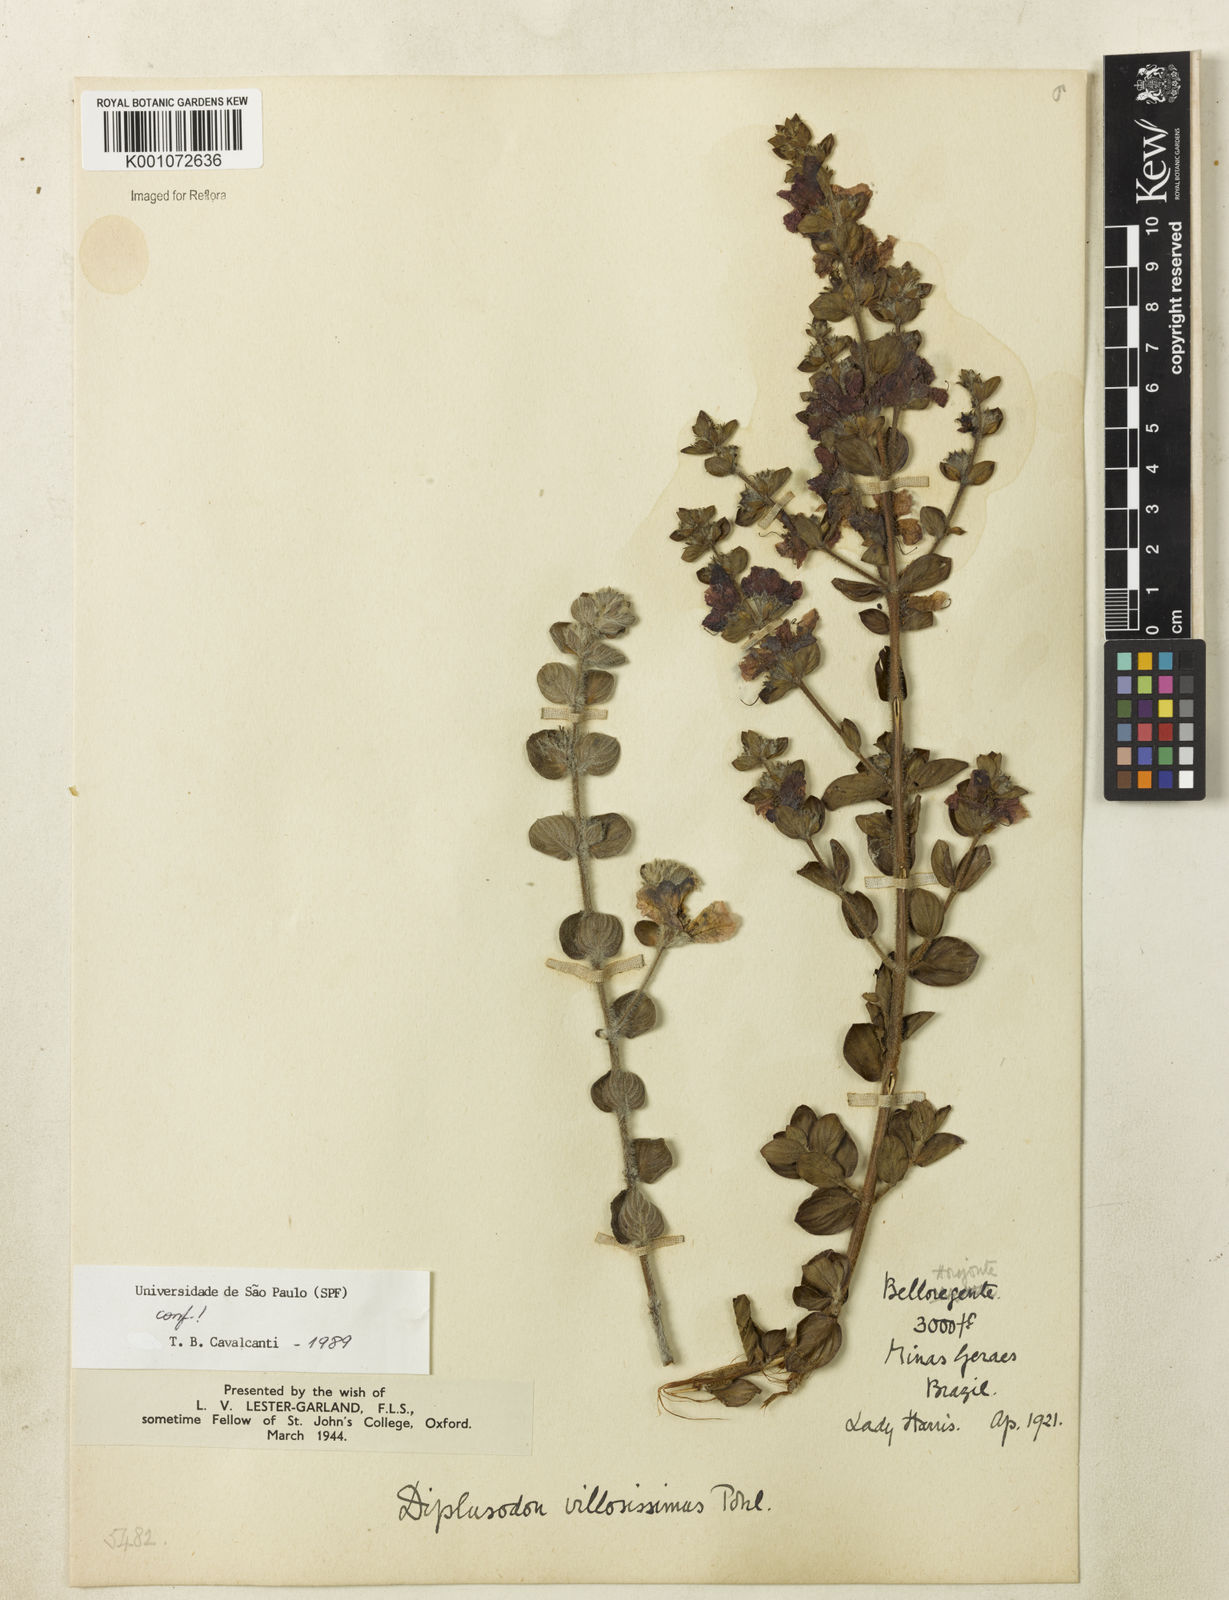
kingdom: Plantae
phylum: Tracheophyta
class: Magnoliopsida
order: Myrtales
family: Lythraceae
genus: Diplusodon
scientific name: Diplusodon villosissimus
